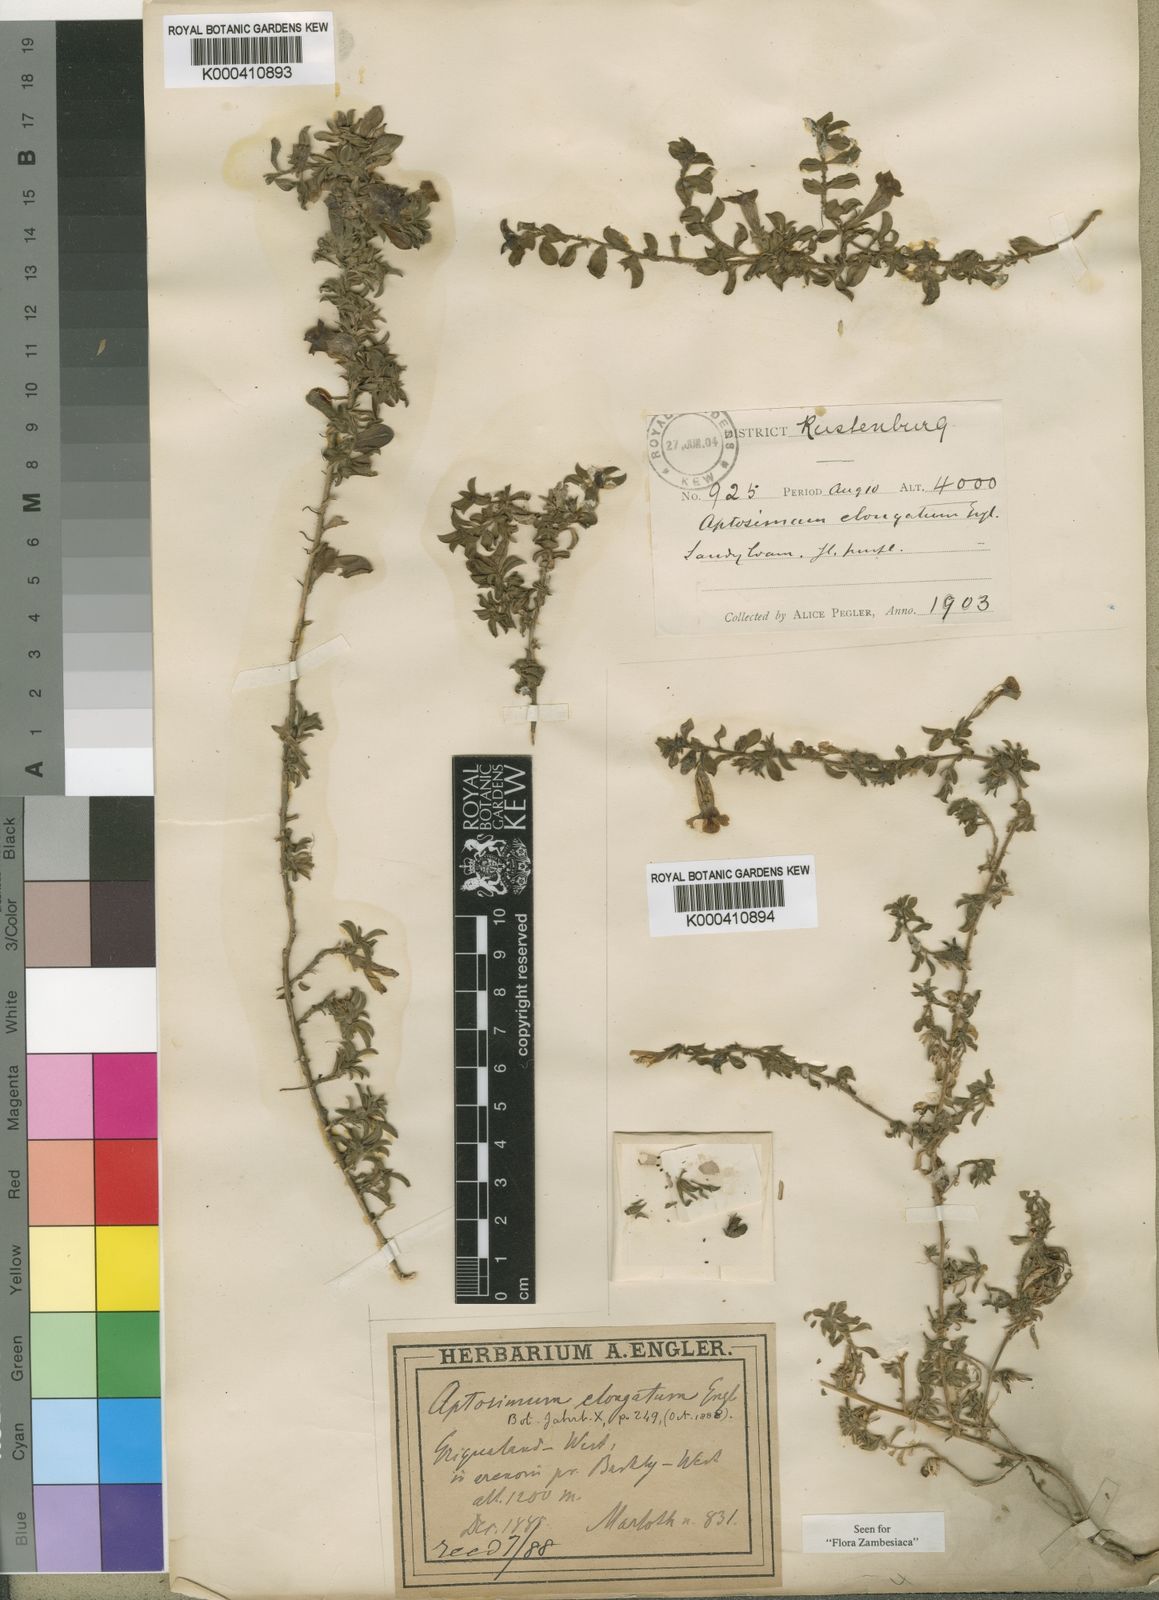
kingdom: Plantae
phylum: Tracheophyta
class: Magnoliopsida
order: Lamiales
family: Scrophulariaceae
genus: Aptosimum
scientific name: Aptosimum elongatum
